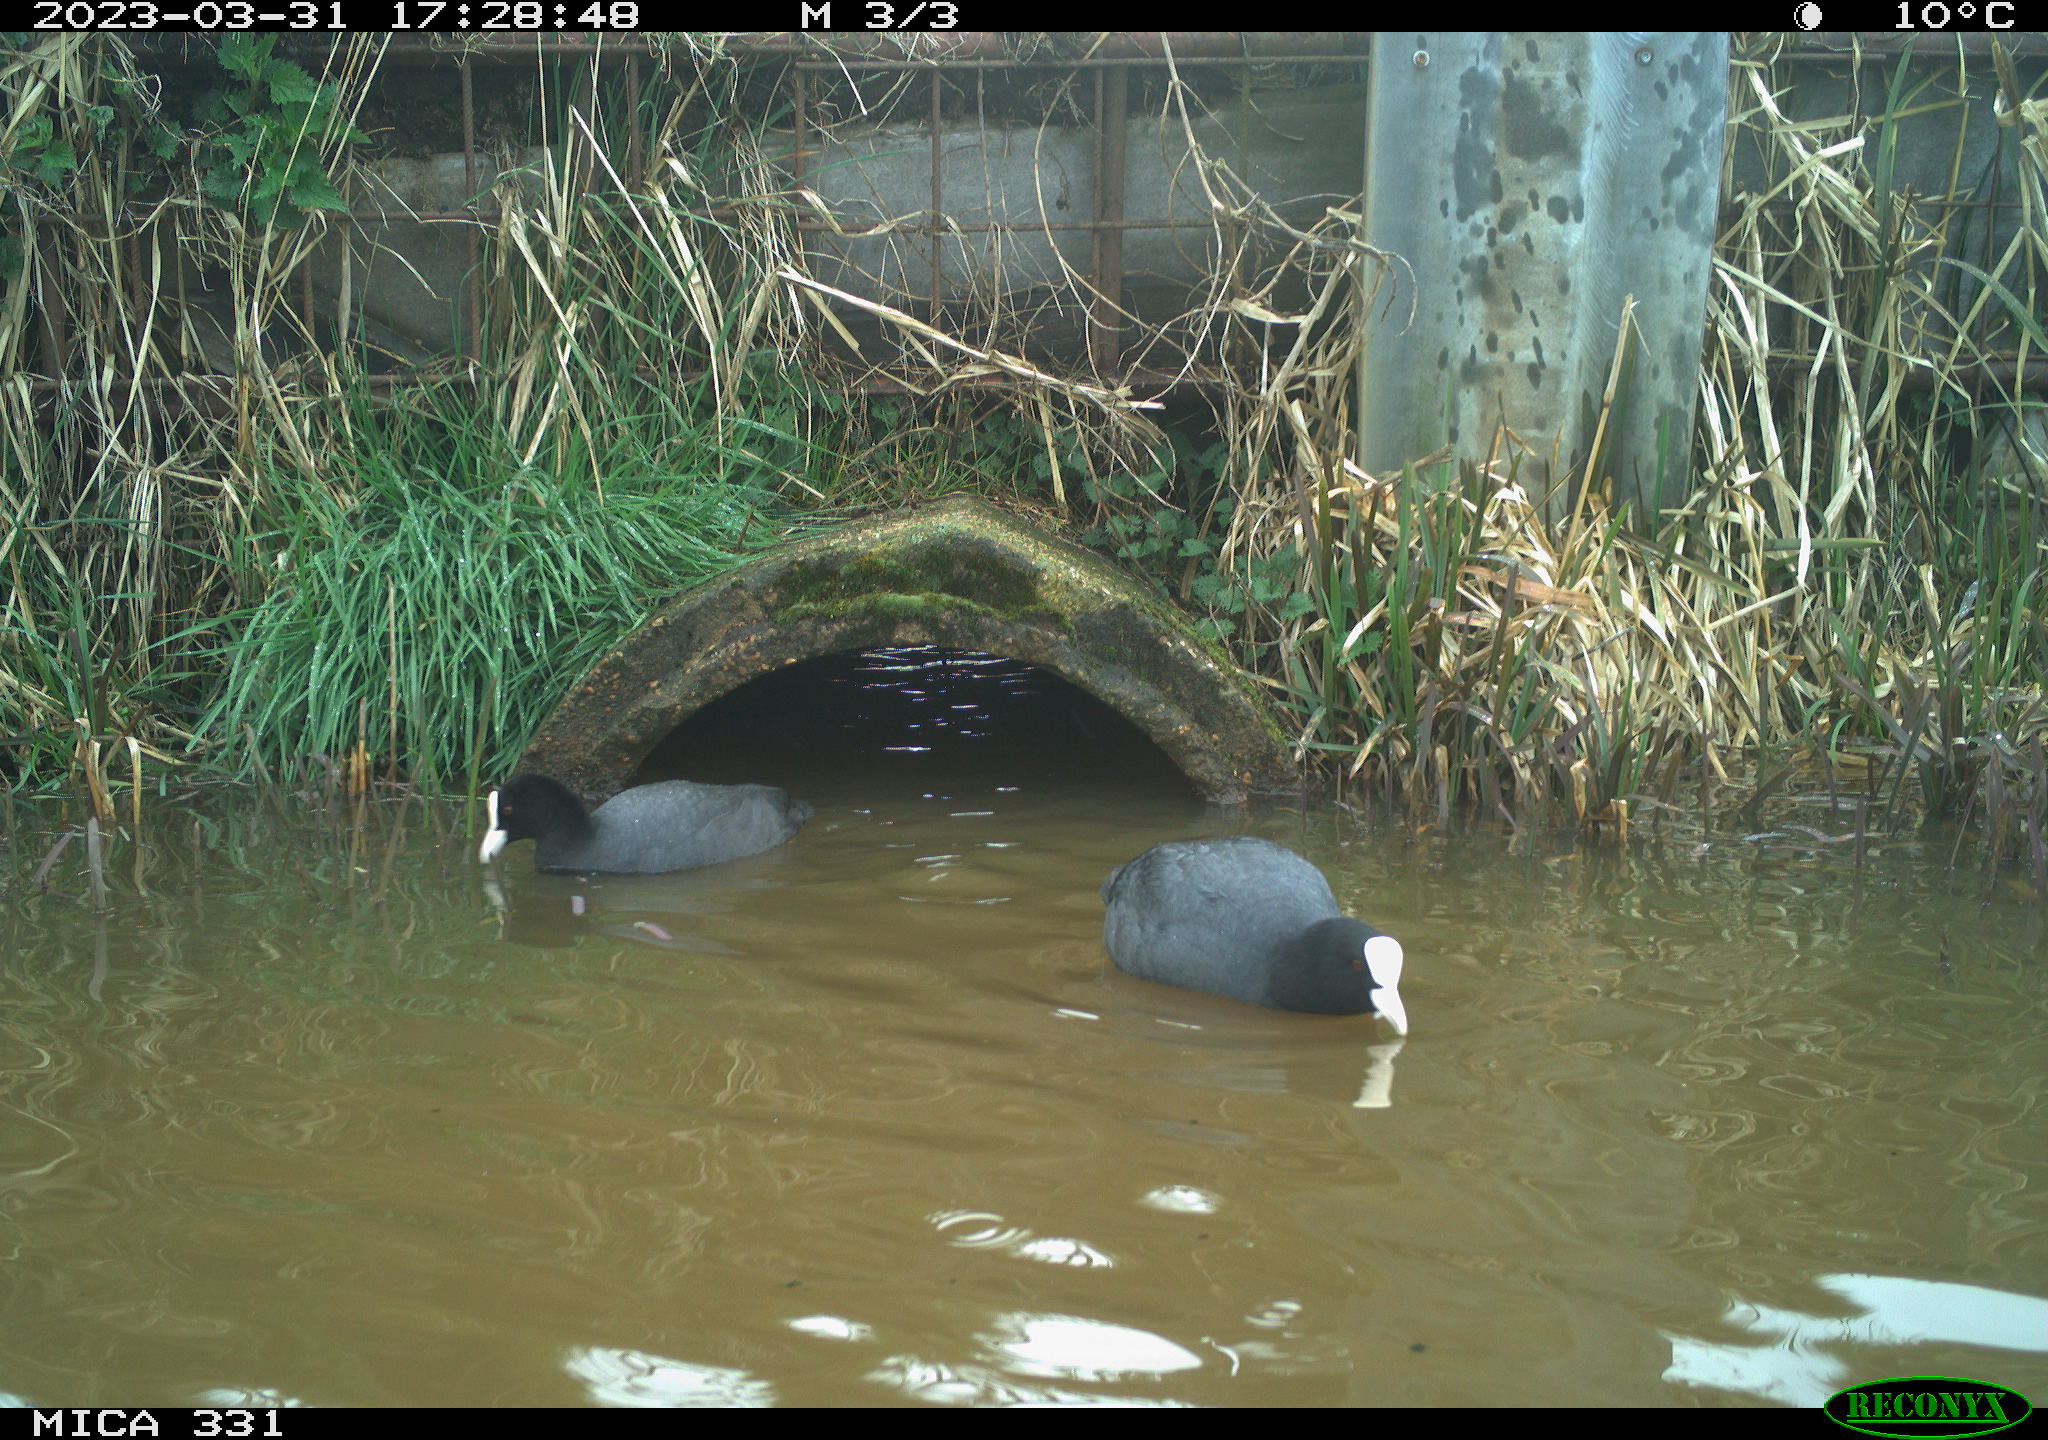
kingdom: Animalia
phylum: Chordata
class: Aves
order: Gruiformes
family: Rallidae
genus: Fulica
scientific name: Fulica atra
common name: Eurasian coot
